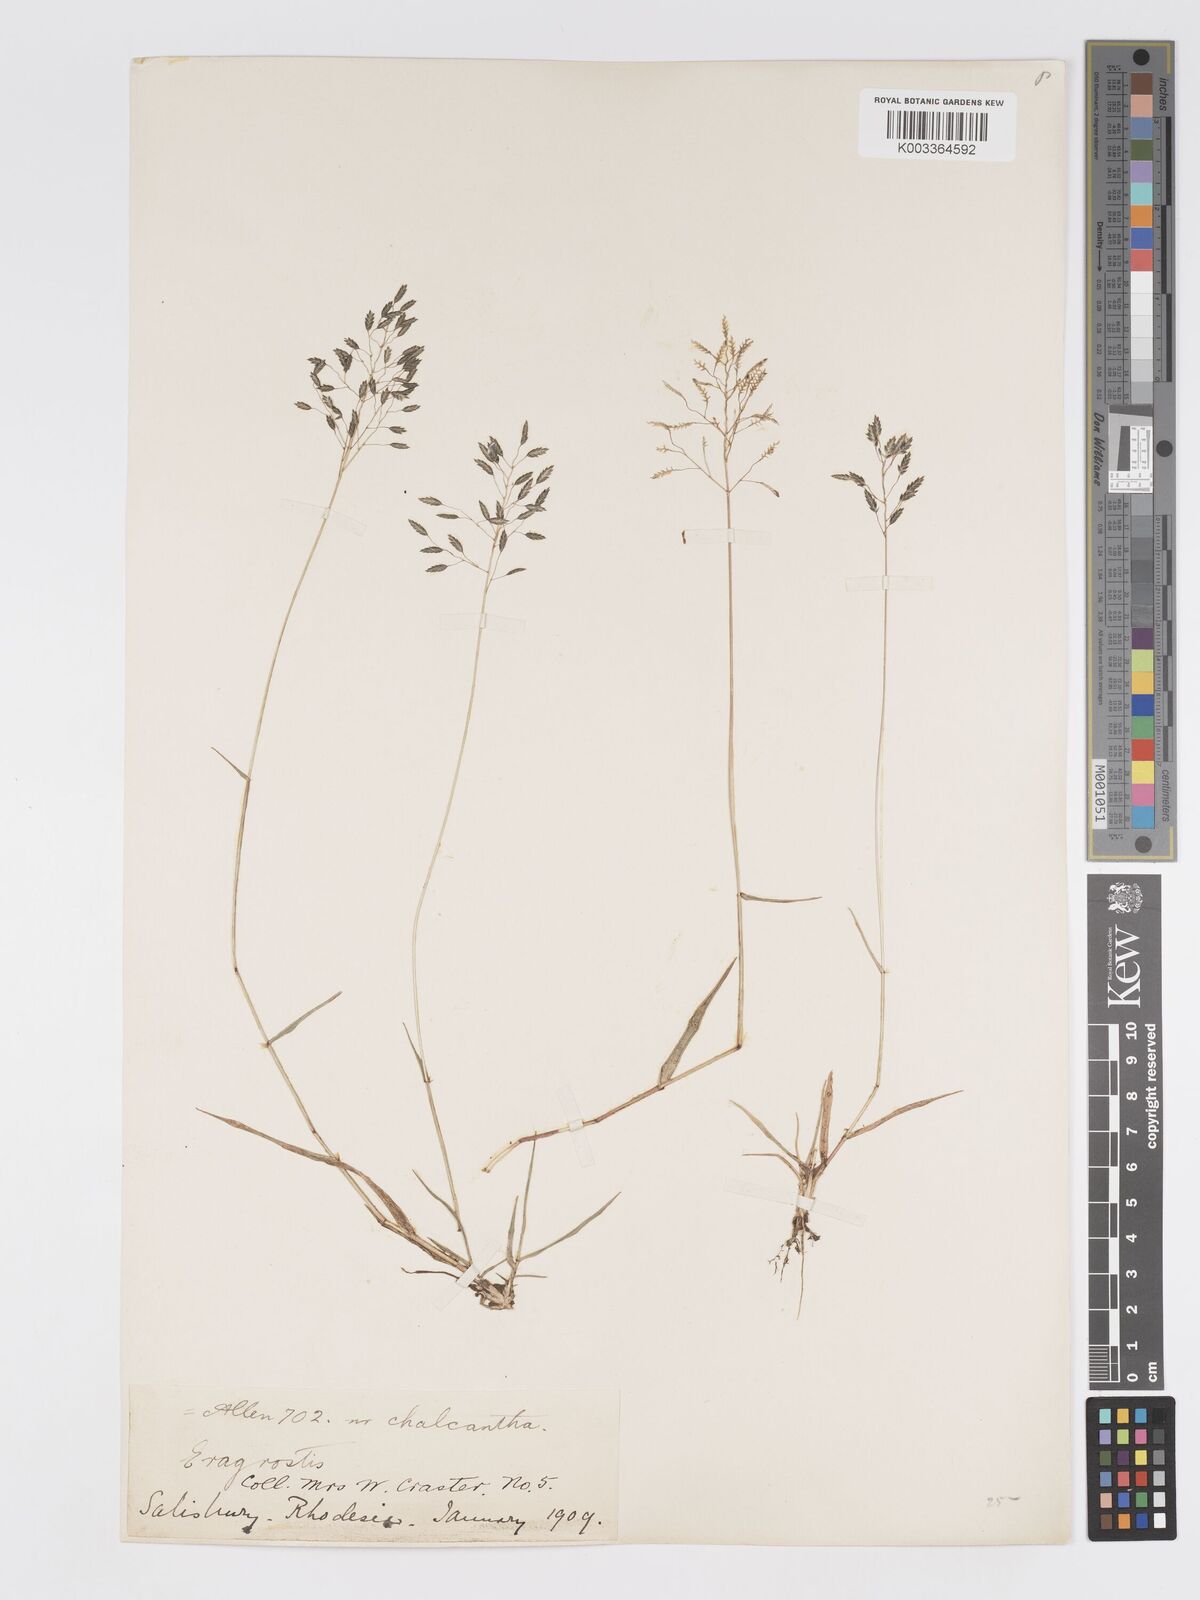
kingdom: Plantae
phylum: Tracheophyta
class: Liliopsida
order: Poales
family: Poaceae
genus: Eragrostis
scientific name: Eragrostis patentipilosa
